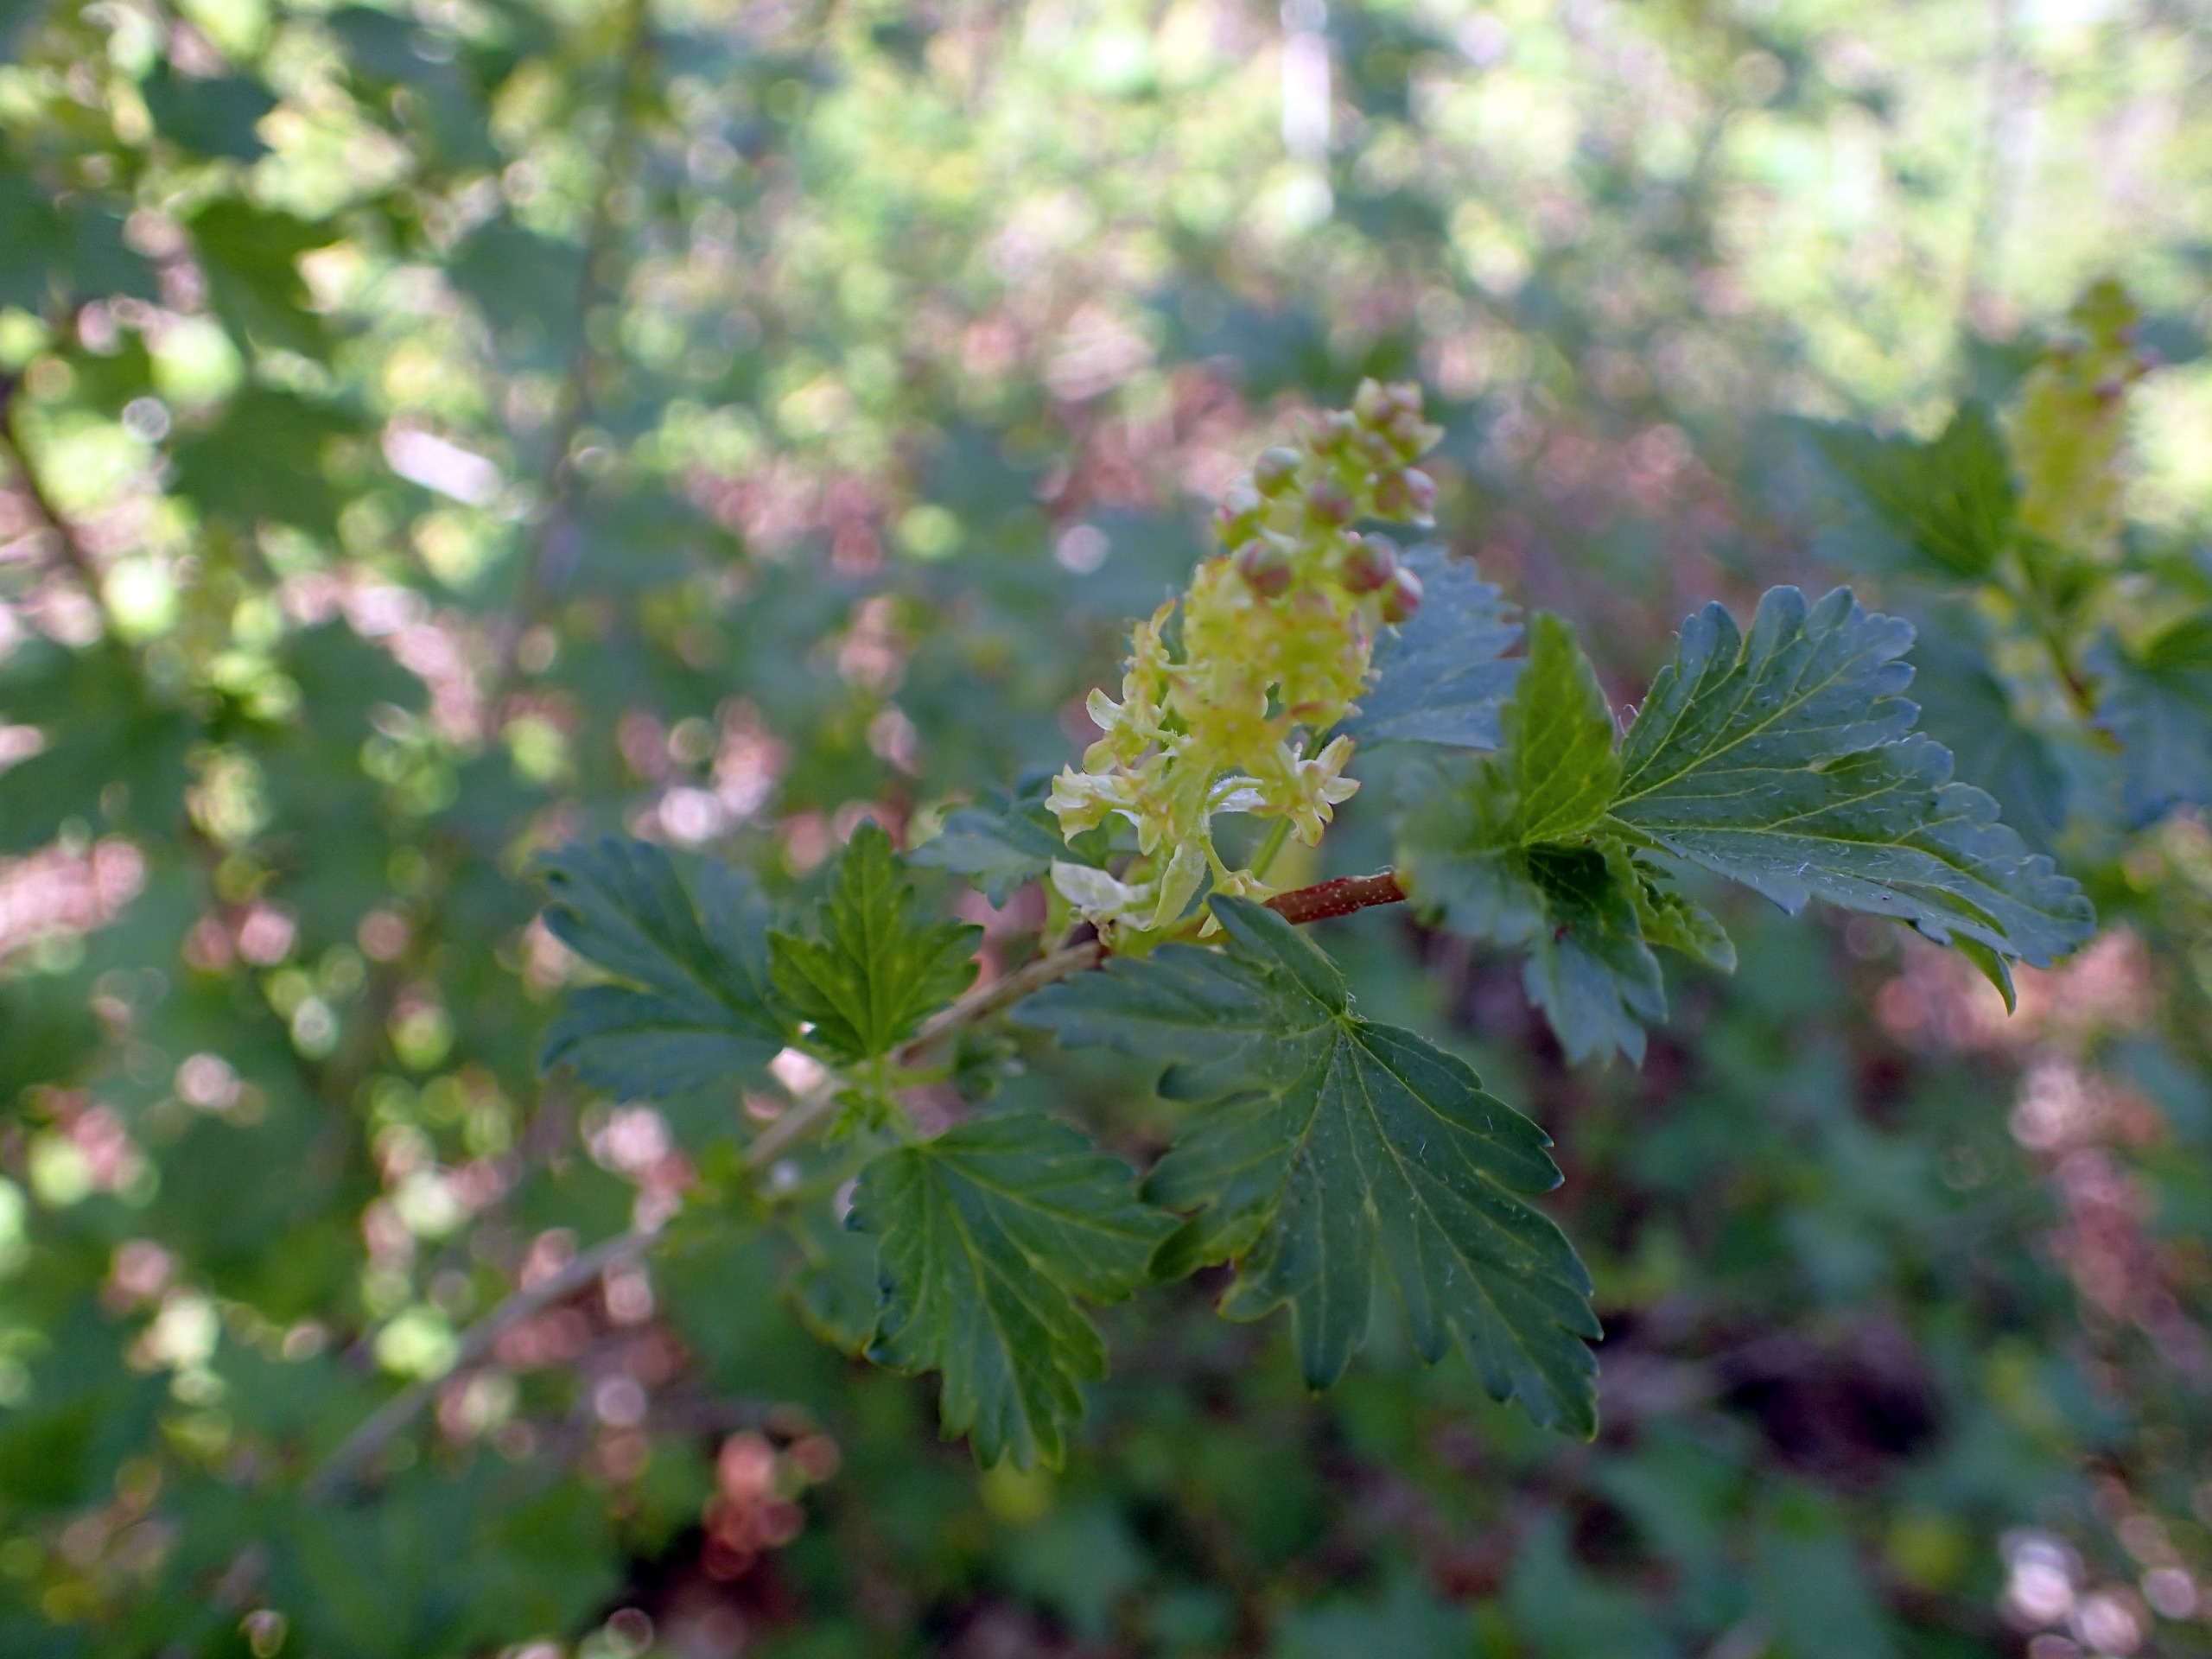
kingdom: Plantae
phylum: Tracheophyta
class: Magnoliopsida
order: Saxifragales
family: Grossulariaceae
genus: Ribes
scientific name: Ribes alpinum
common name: Fjeld-ribs
